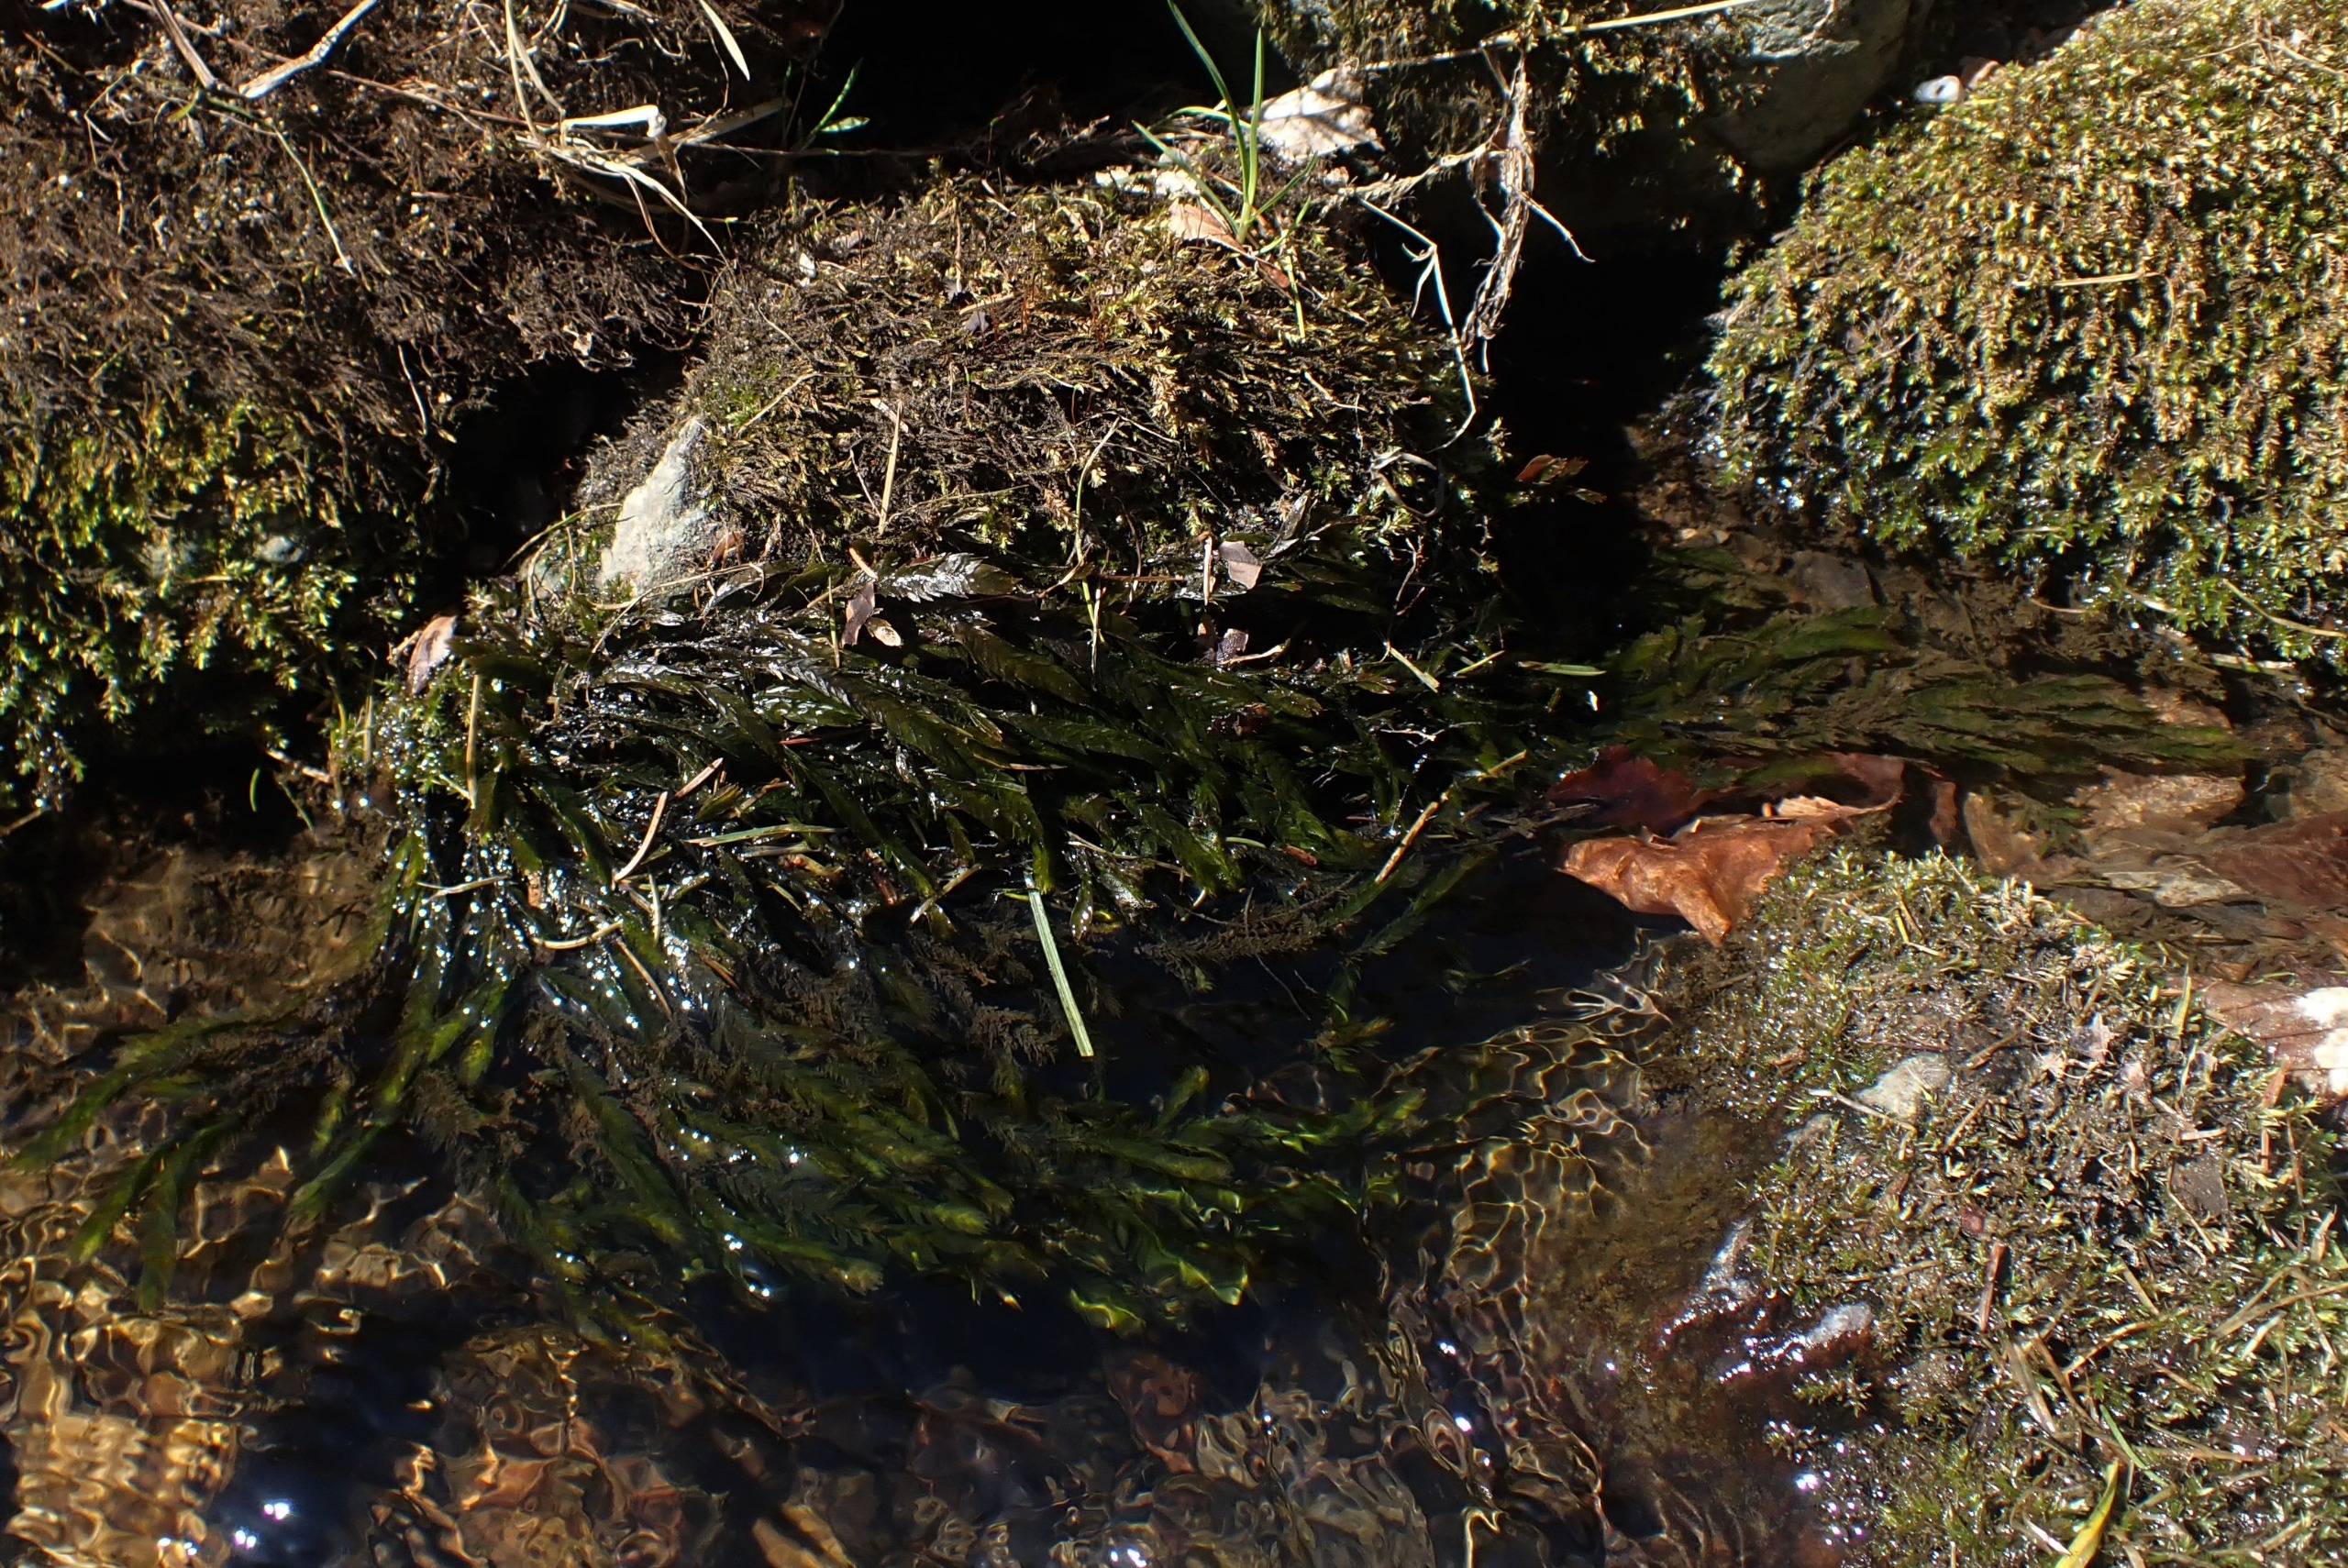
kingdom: Plantae
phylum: Bryophyta
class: Bryopsida
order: Hypnales
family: Fontinalaceae
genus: Fontinalis
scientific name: Fontinalis antipyretica
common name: Stor kildemos
